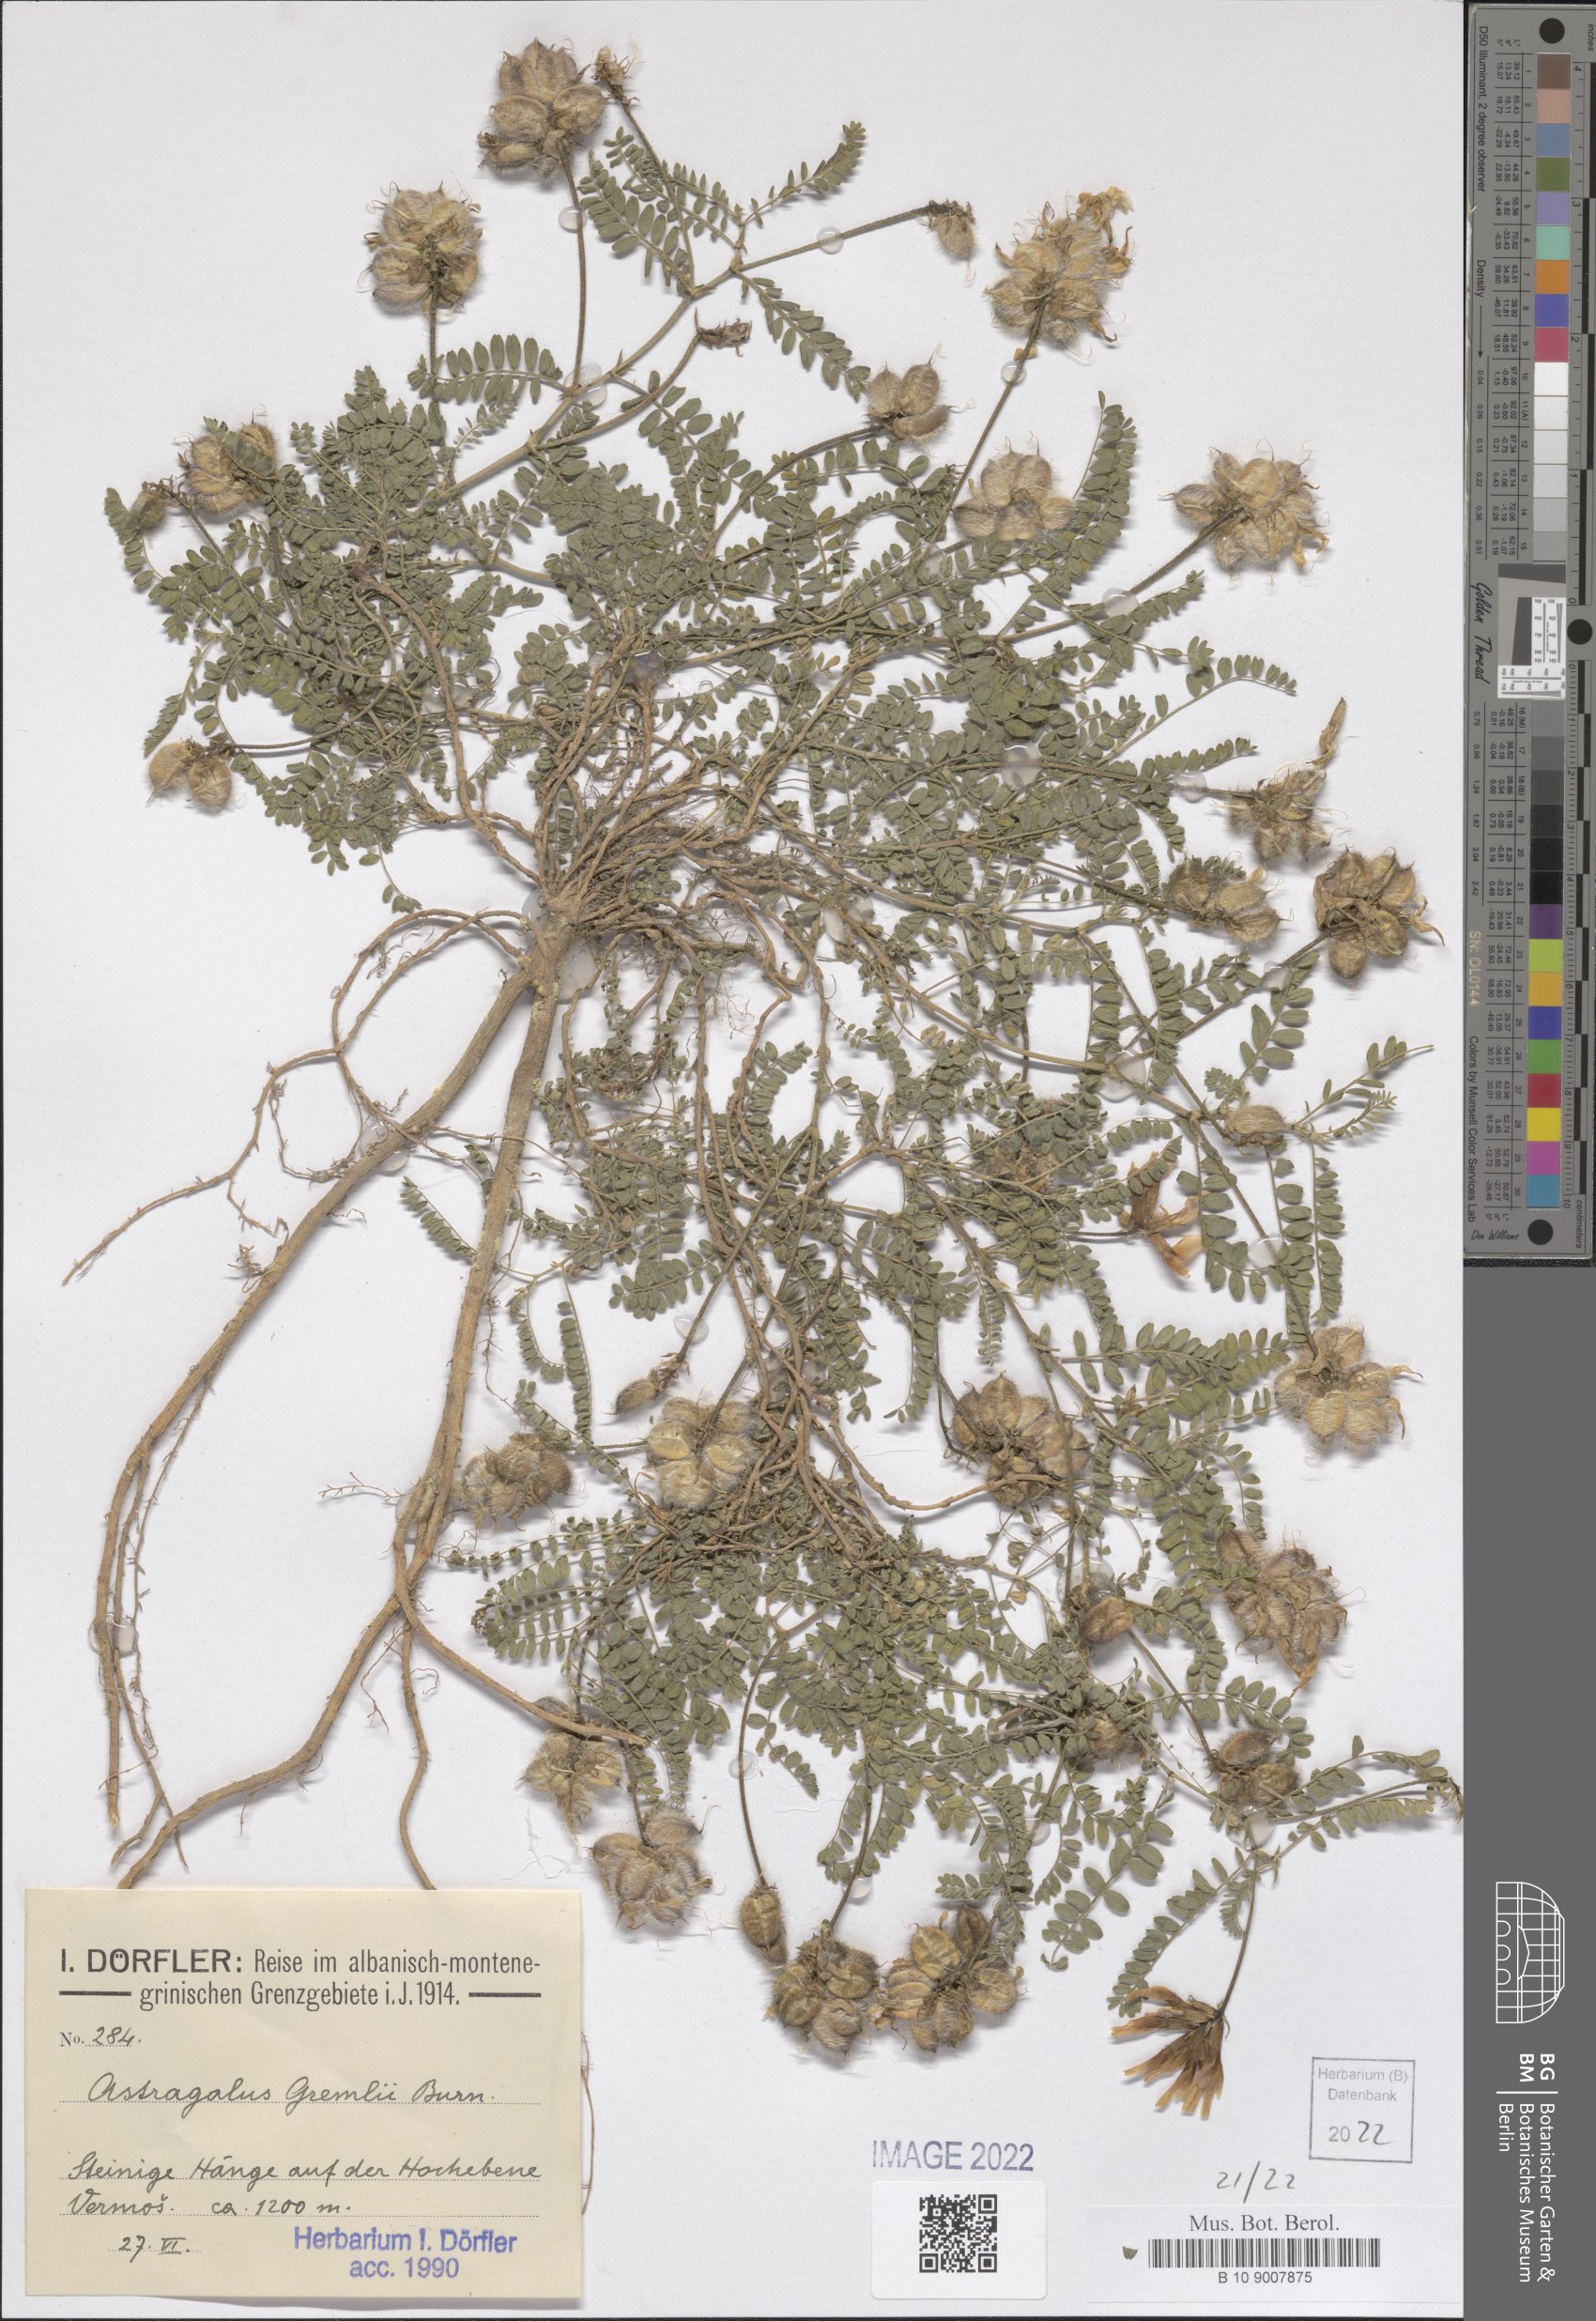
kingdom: Plantae
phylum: Tracheophyta
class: Magnoliopsida
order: Fabales
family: Fabaceae
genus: Astragalus
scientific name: Astragalus hypoglottis
